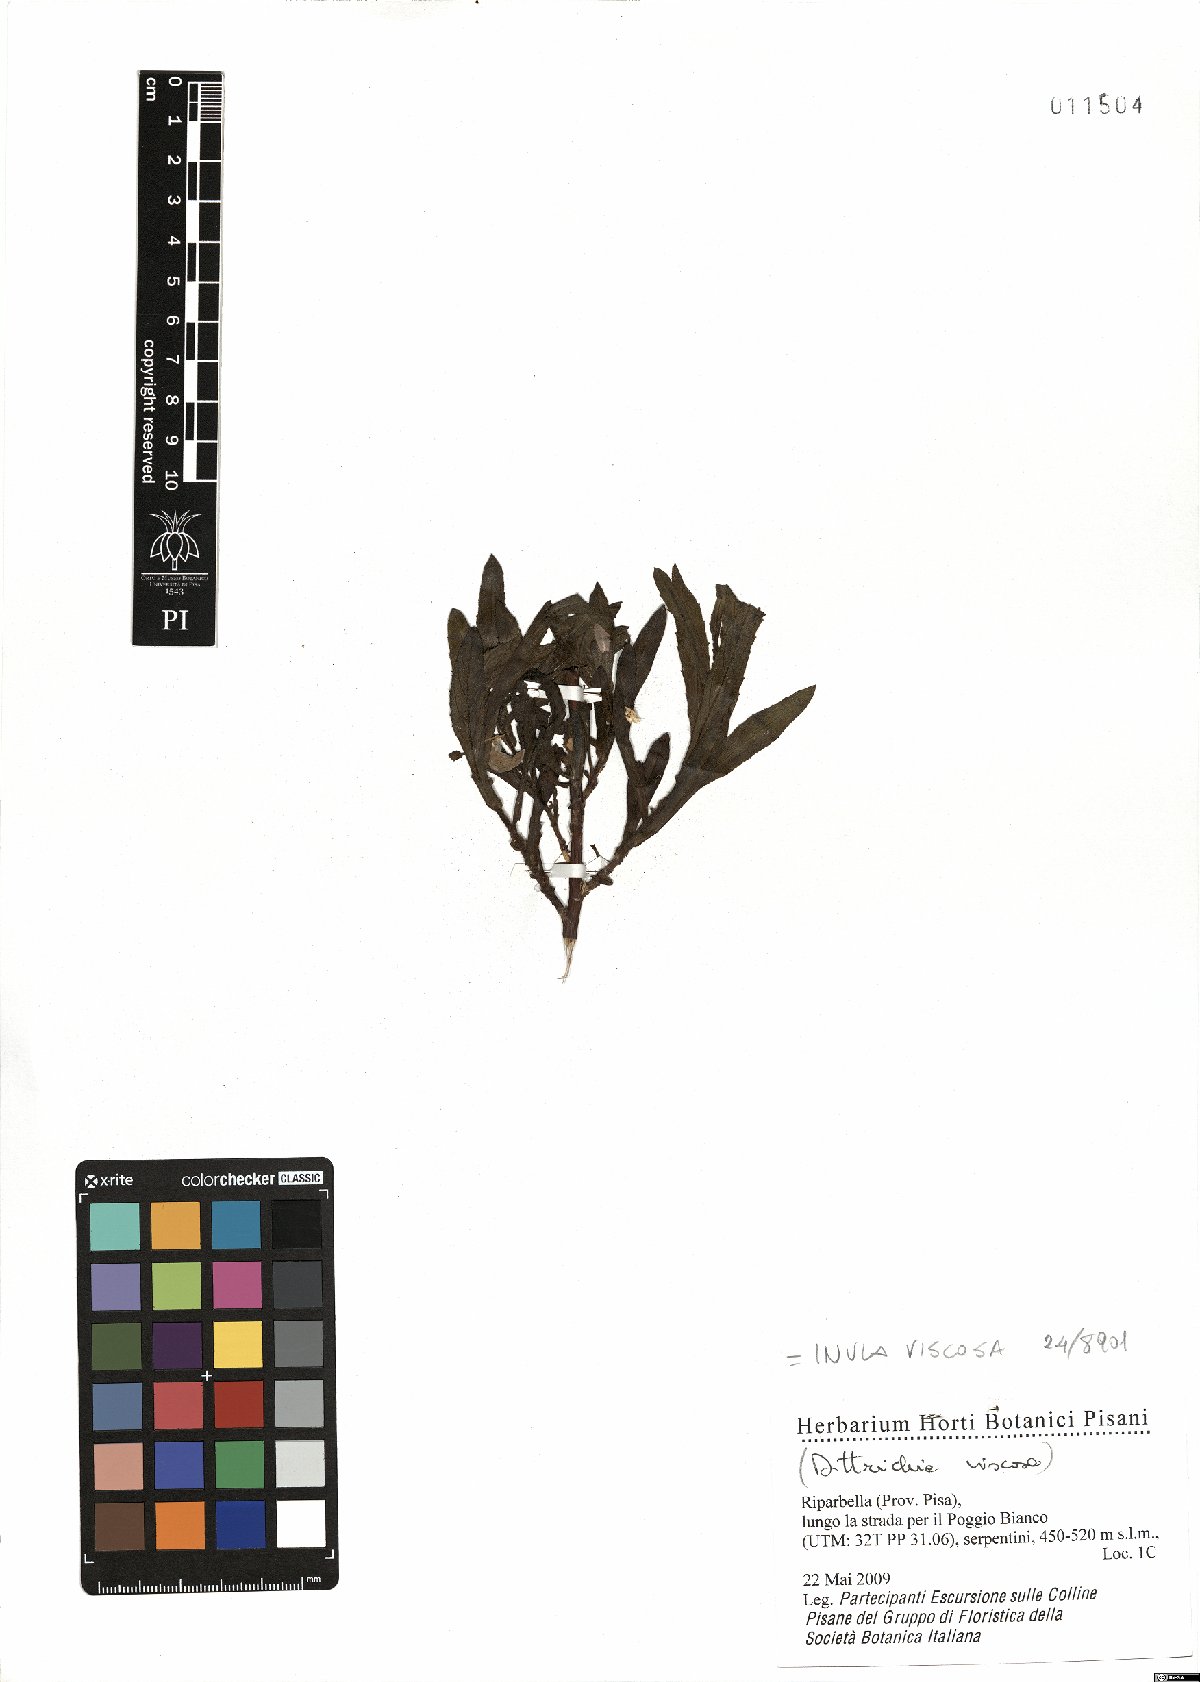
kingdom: Plantae
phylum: Tracheophyta
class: Magnoliopsida
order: Asterales
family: Asteraceae
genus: Dittrichia
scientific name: Dittrichia viscosa
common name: Woody fleabane
